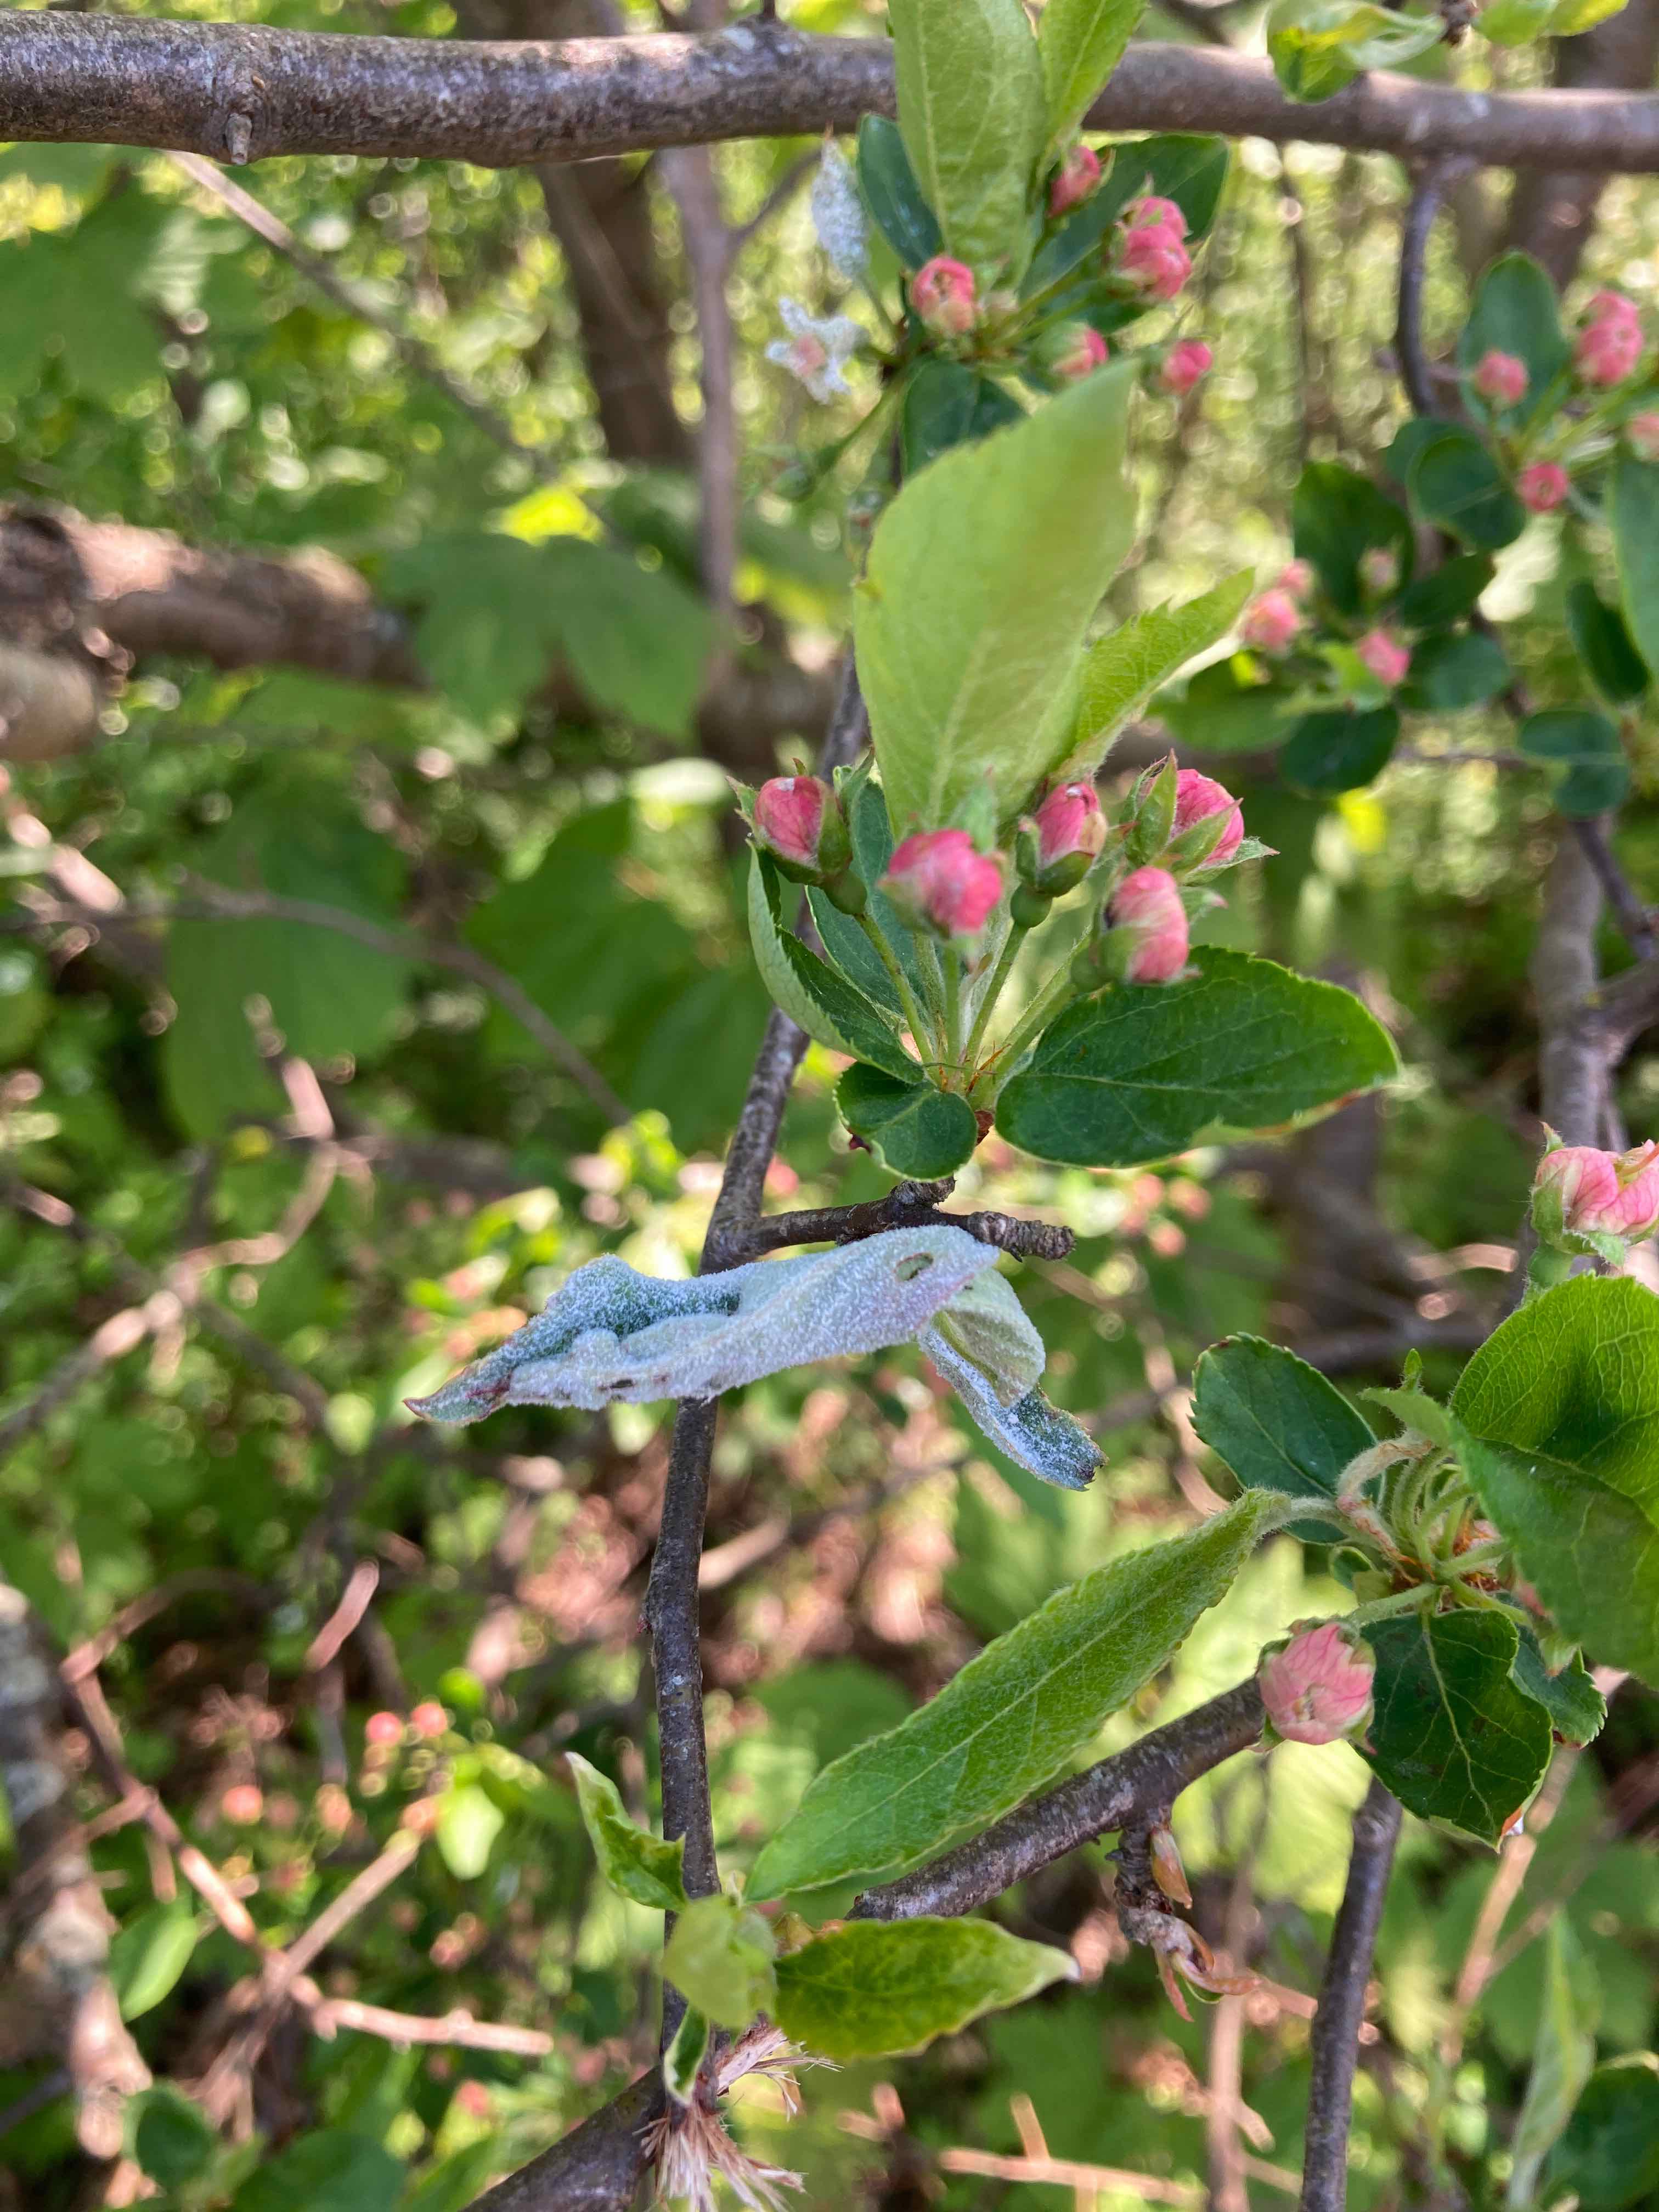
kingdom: Fungi
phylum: Ascomycota
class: Leotiomycetes
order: Helotiales
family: Erysiphaceae
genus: Podosphaera
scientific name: Podosphaera leucotricha
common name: æble-meldug
